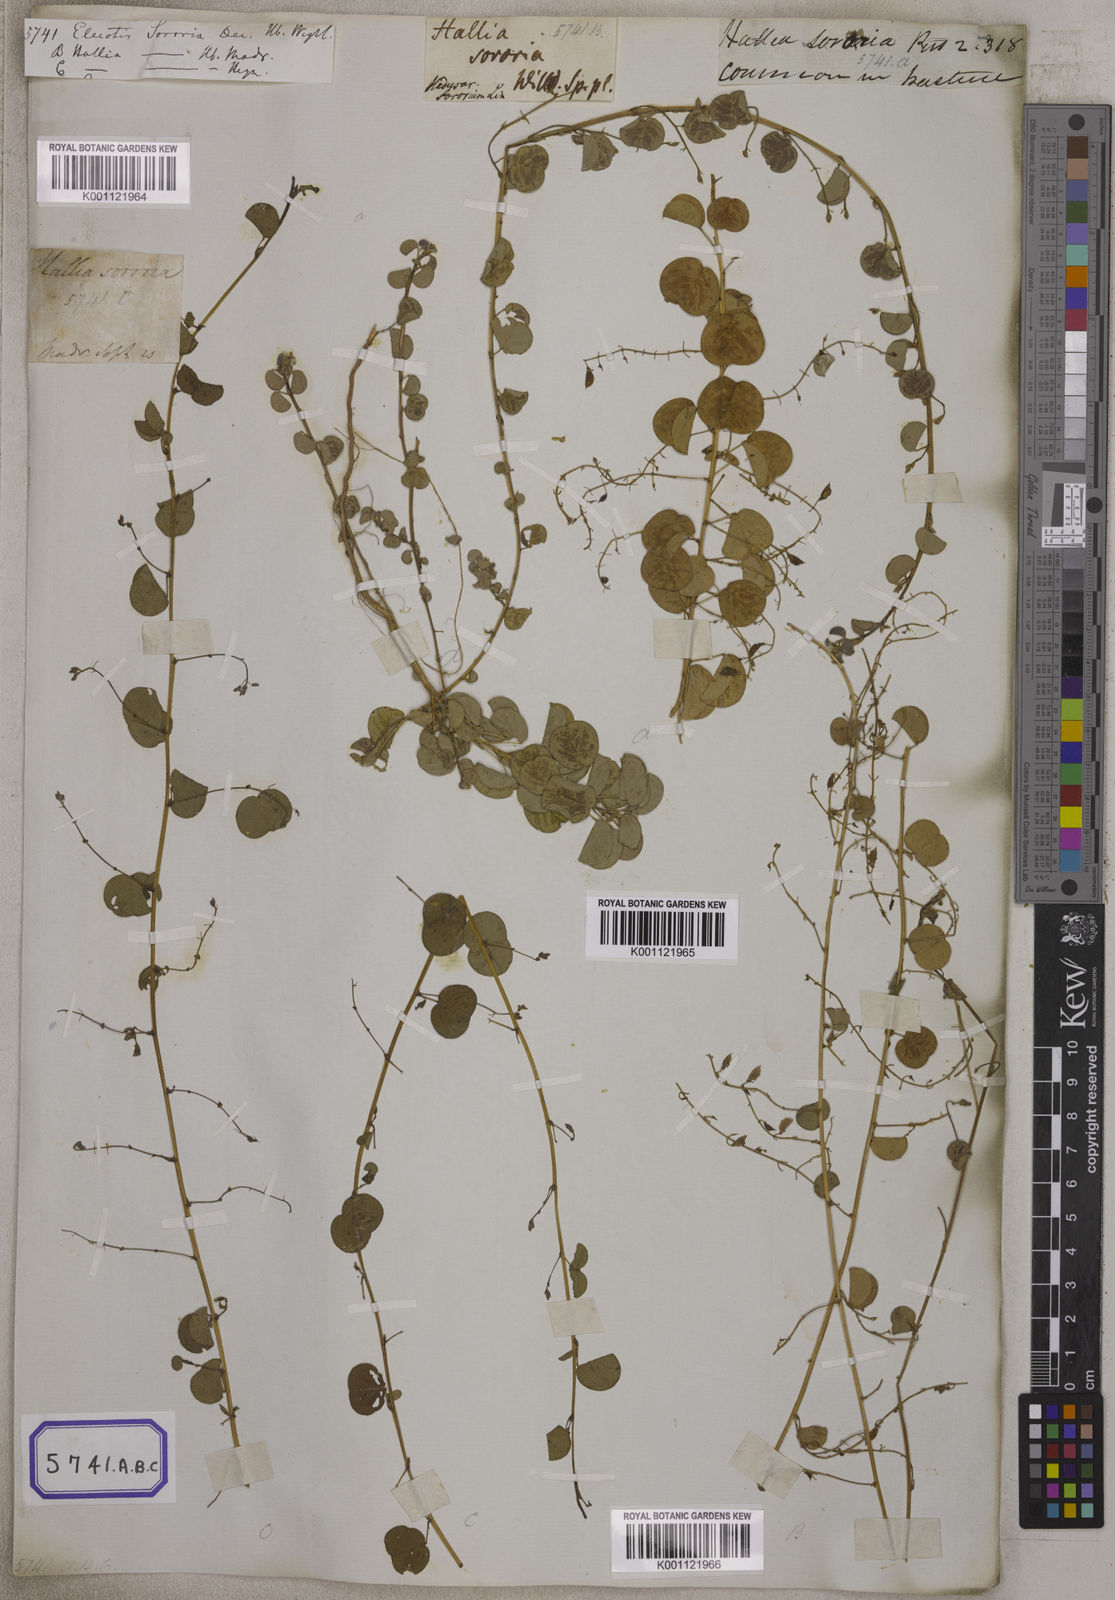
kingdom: Plantae
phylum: Tracheophyta
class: Magnoliopsida
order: Fabales
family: Fabaceae
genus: Eleiotis
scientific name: Eleiotis sororia
